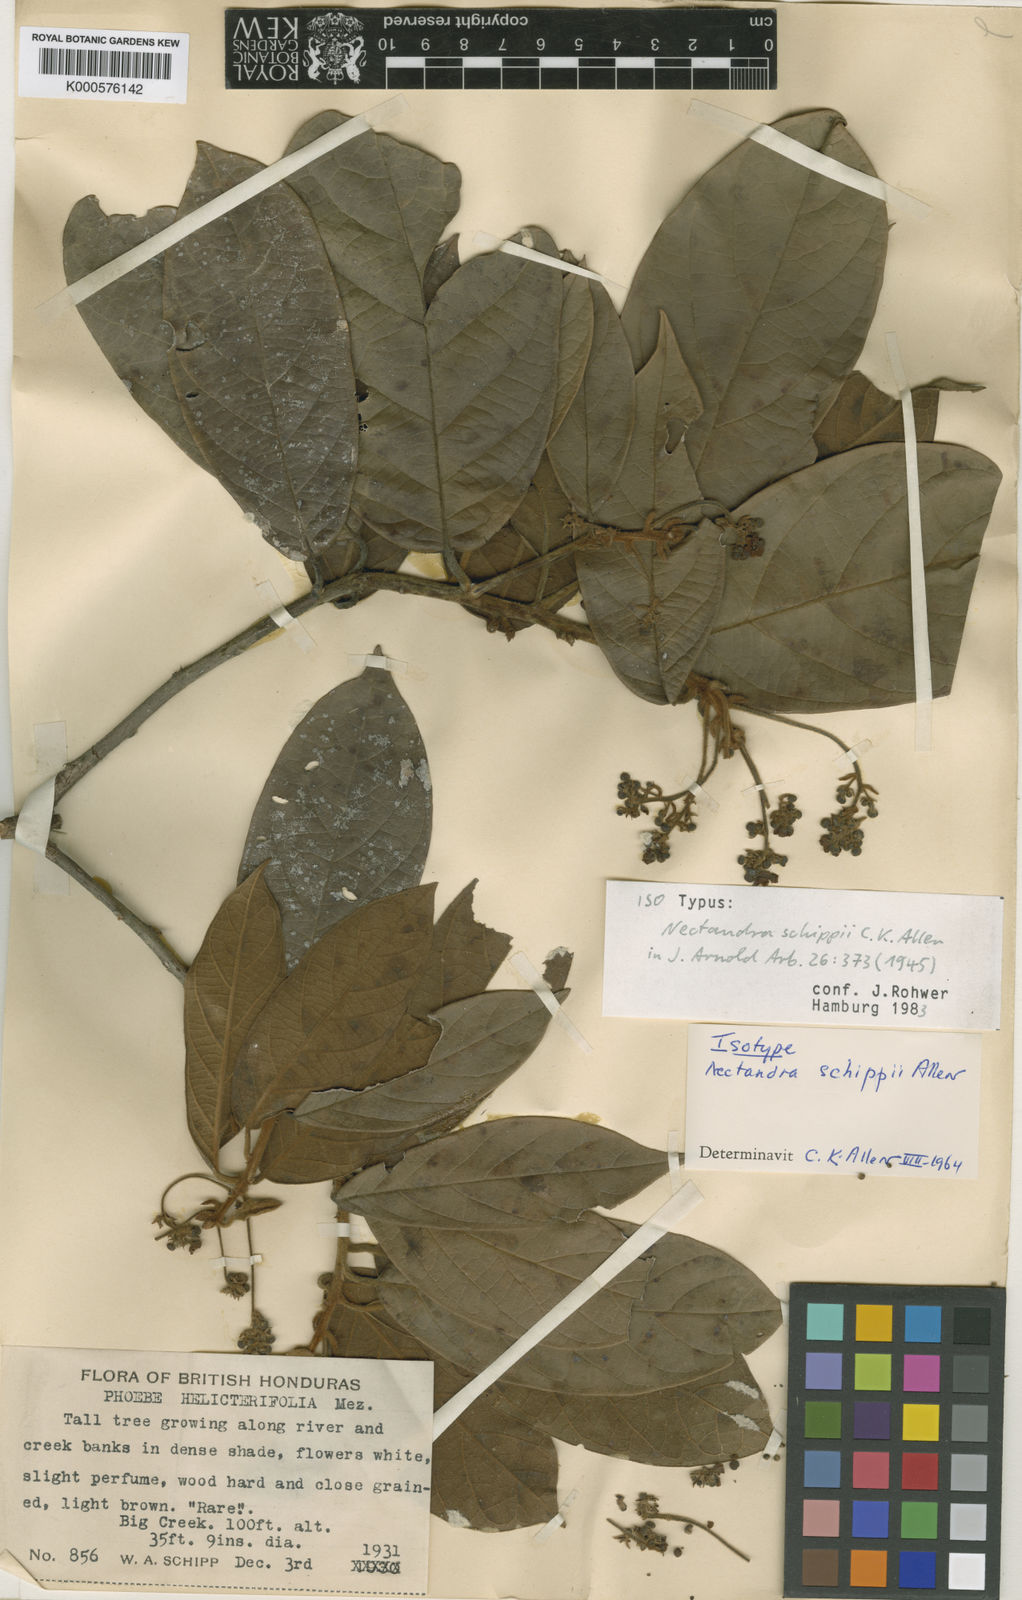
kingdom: Plantae
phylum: Tracheophyta
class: Magnoliopsida
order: Laurales
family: Lauraceae
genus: Nectandra
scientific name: Nectandra belizensis
